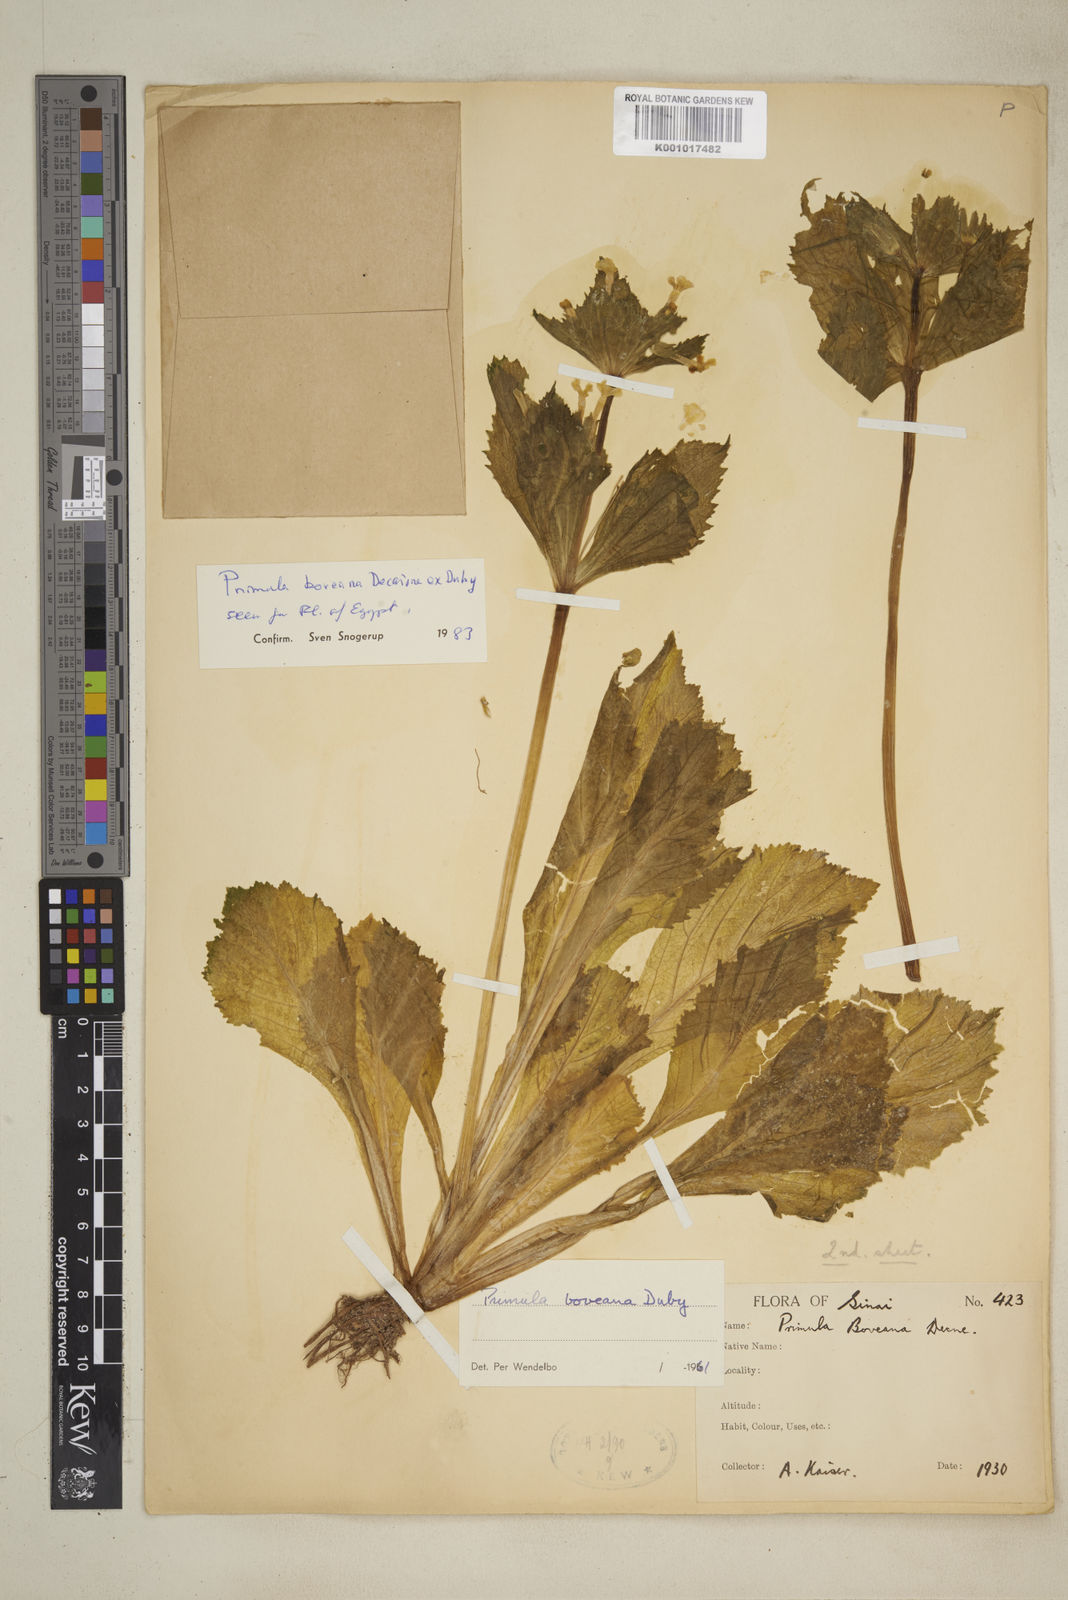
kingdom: Plantae
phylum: Tracheophyta
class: Magnoliopsida
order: Ericales
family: Primulaceae
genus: Evotrochis
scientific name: Evotrochis involucrata
